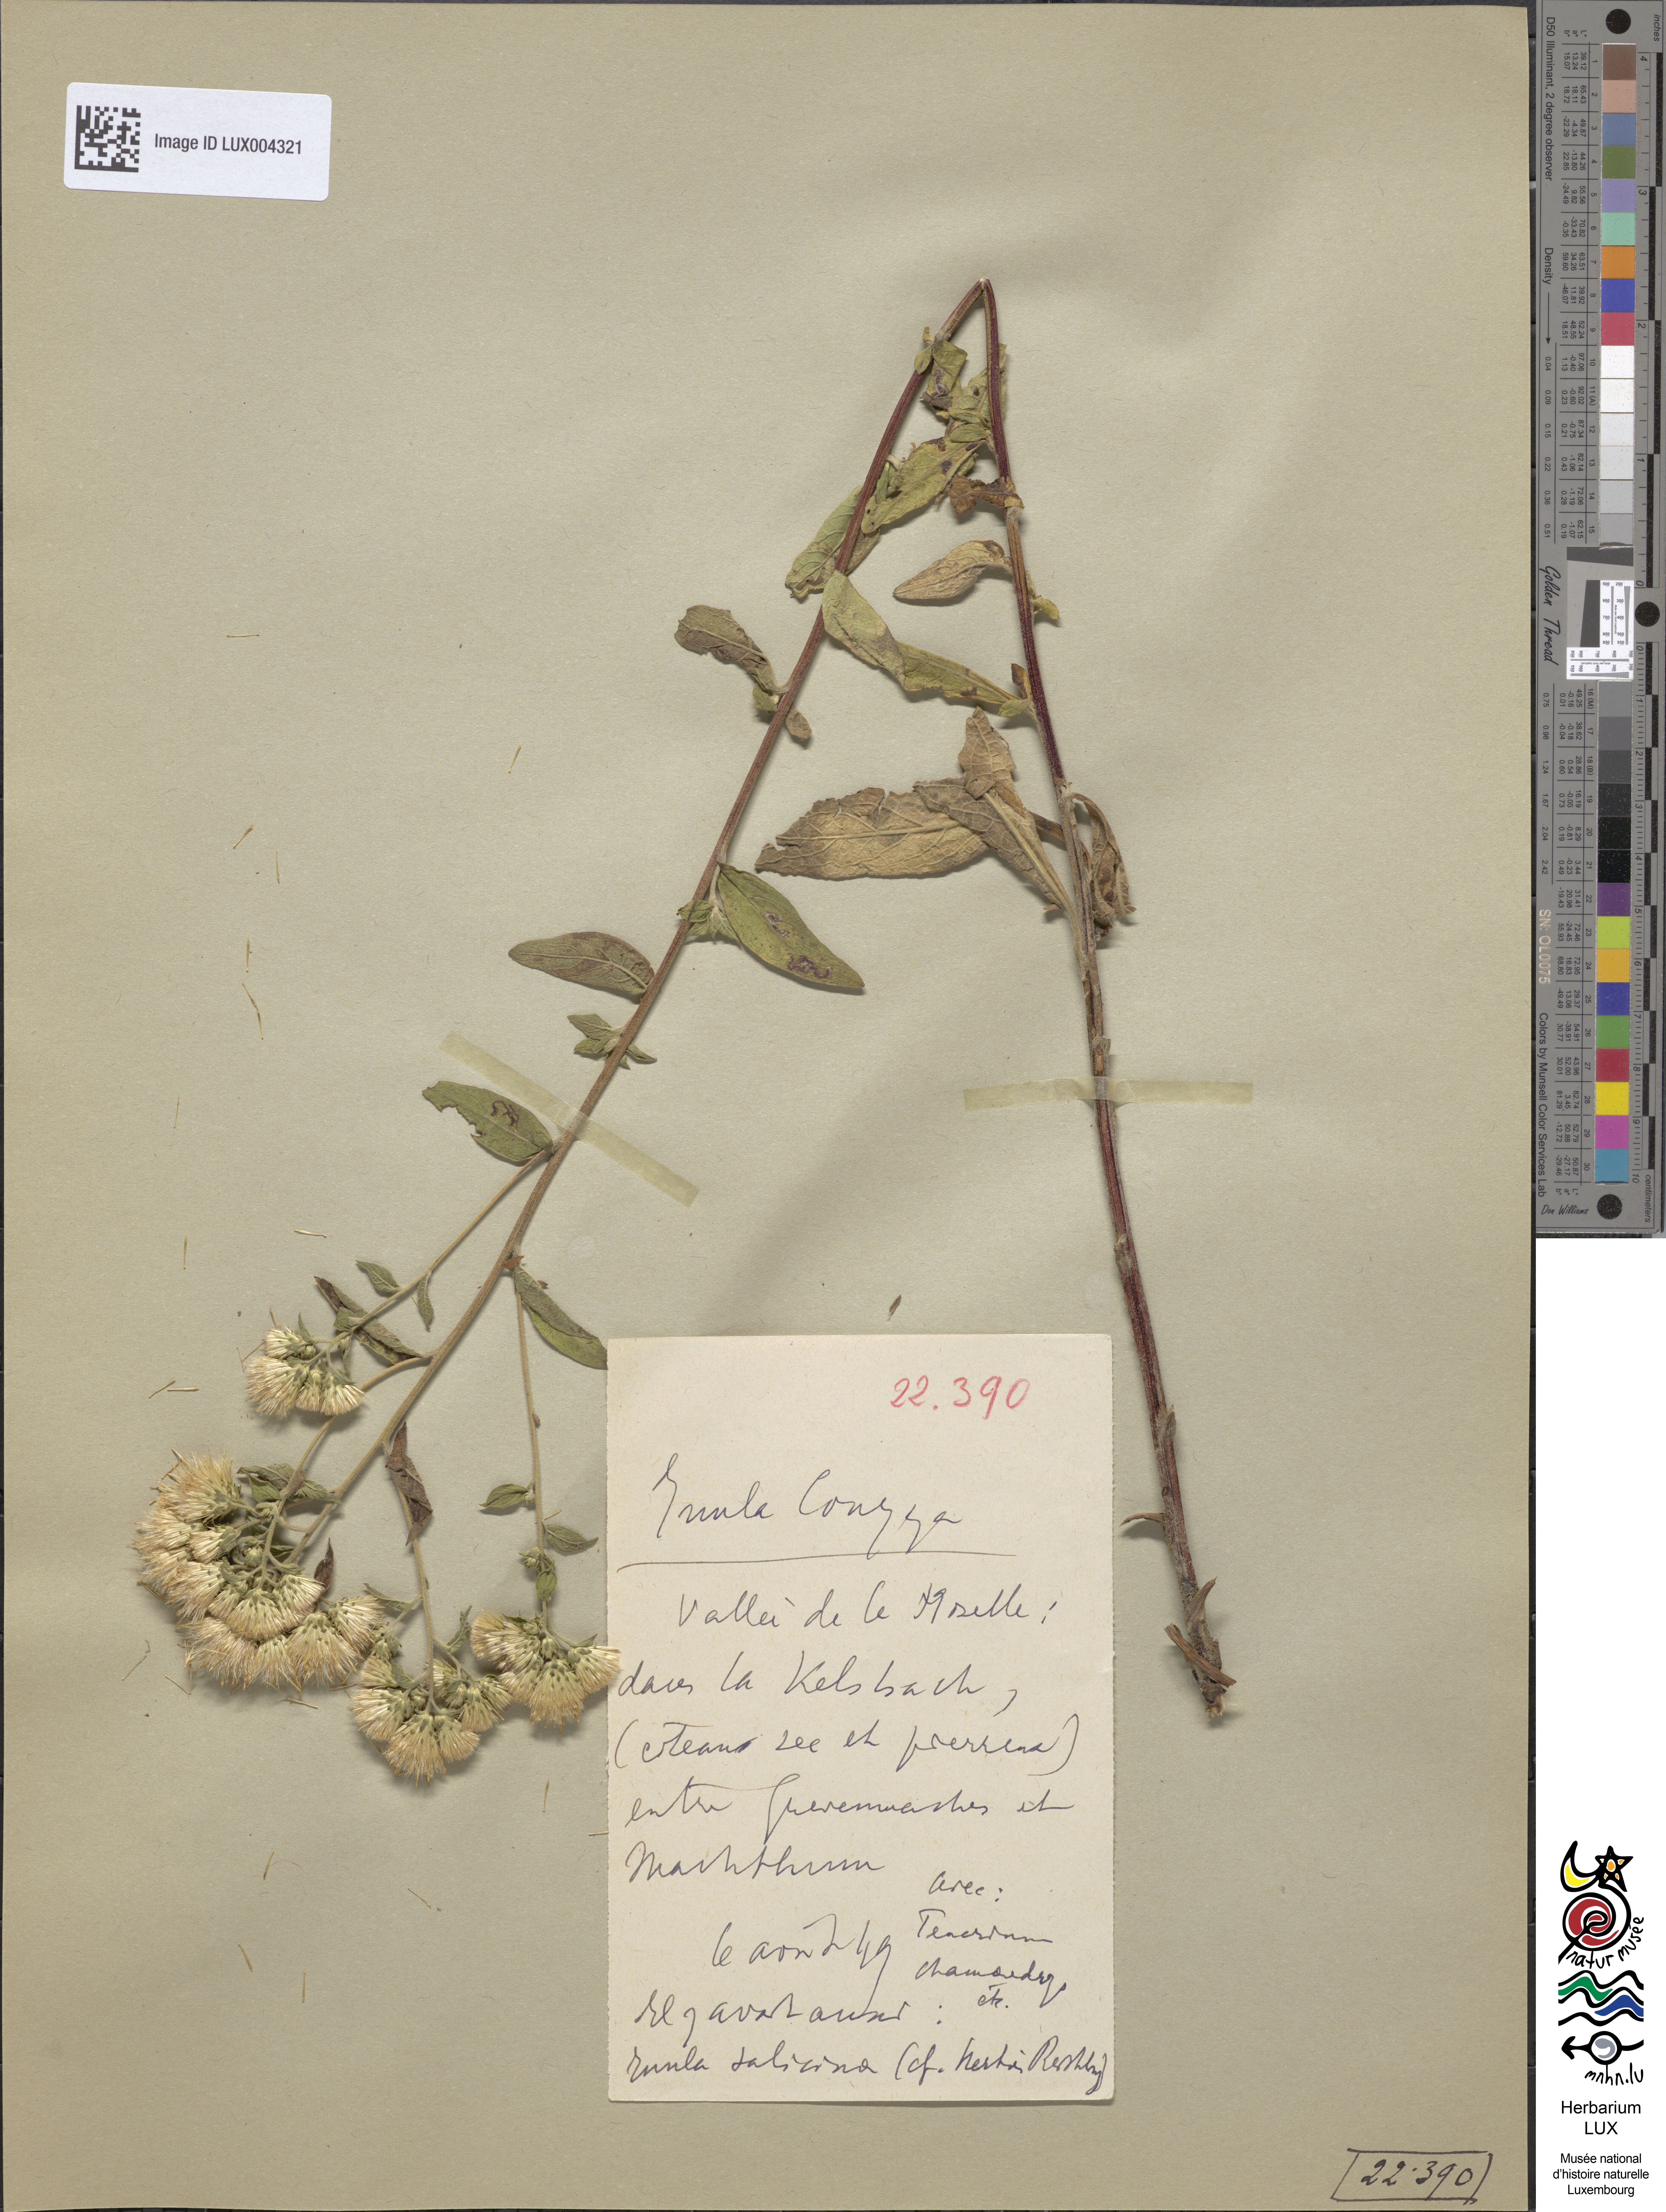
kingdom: Plantae
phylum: Tracheophyta
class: Magnoliopsida
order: Asterales
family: Asteraceae
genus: Pentanema
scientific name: Pentanema squarrosum
